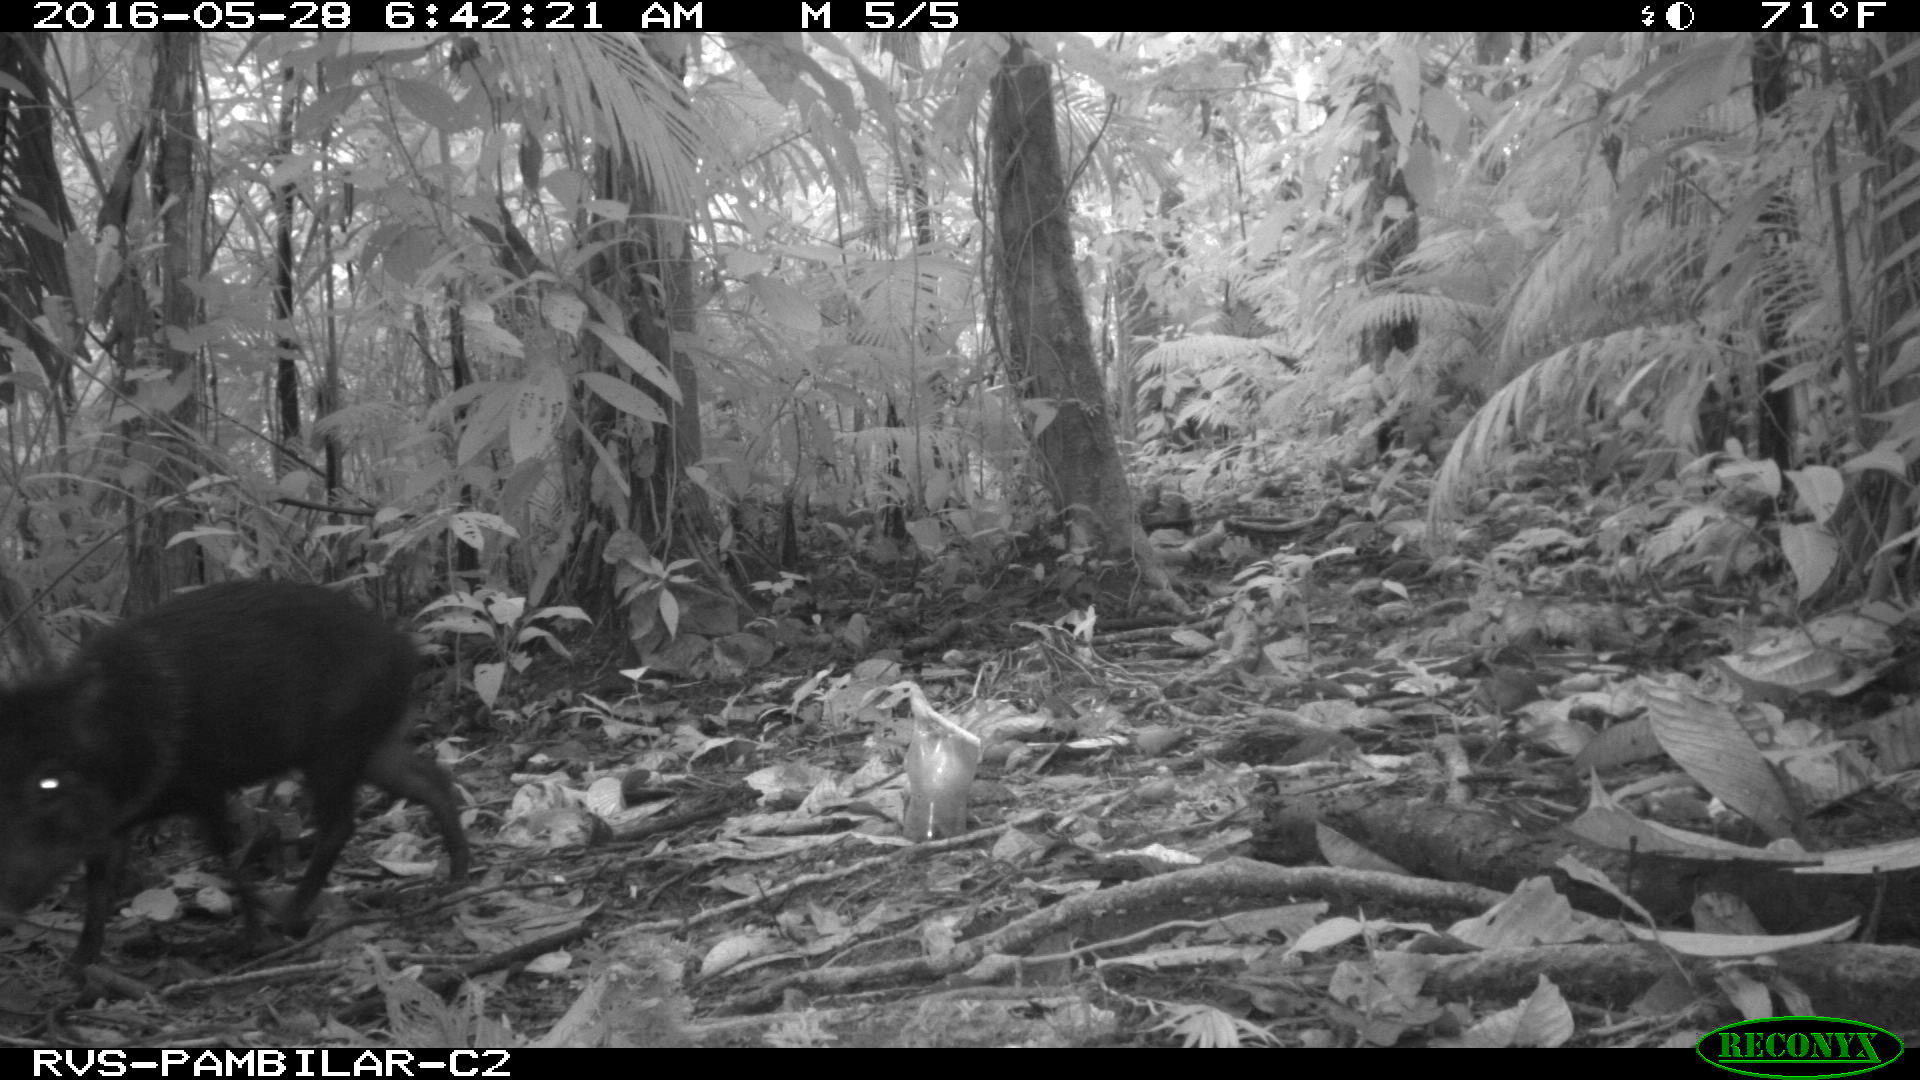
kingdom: Animalia
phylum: Chordata
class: Mammalia
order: Artiodactyla
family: Tayassuidae
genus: Pecari
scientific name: Pecari tajacu
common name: Collared peccary
